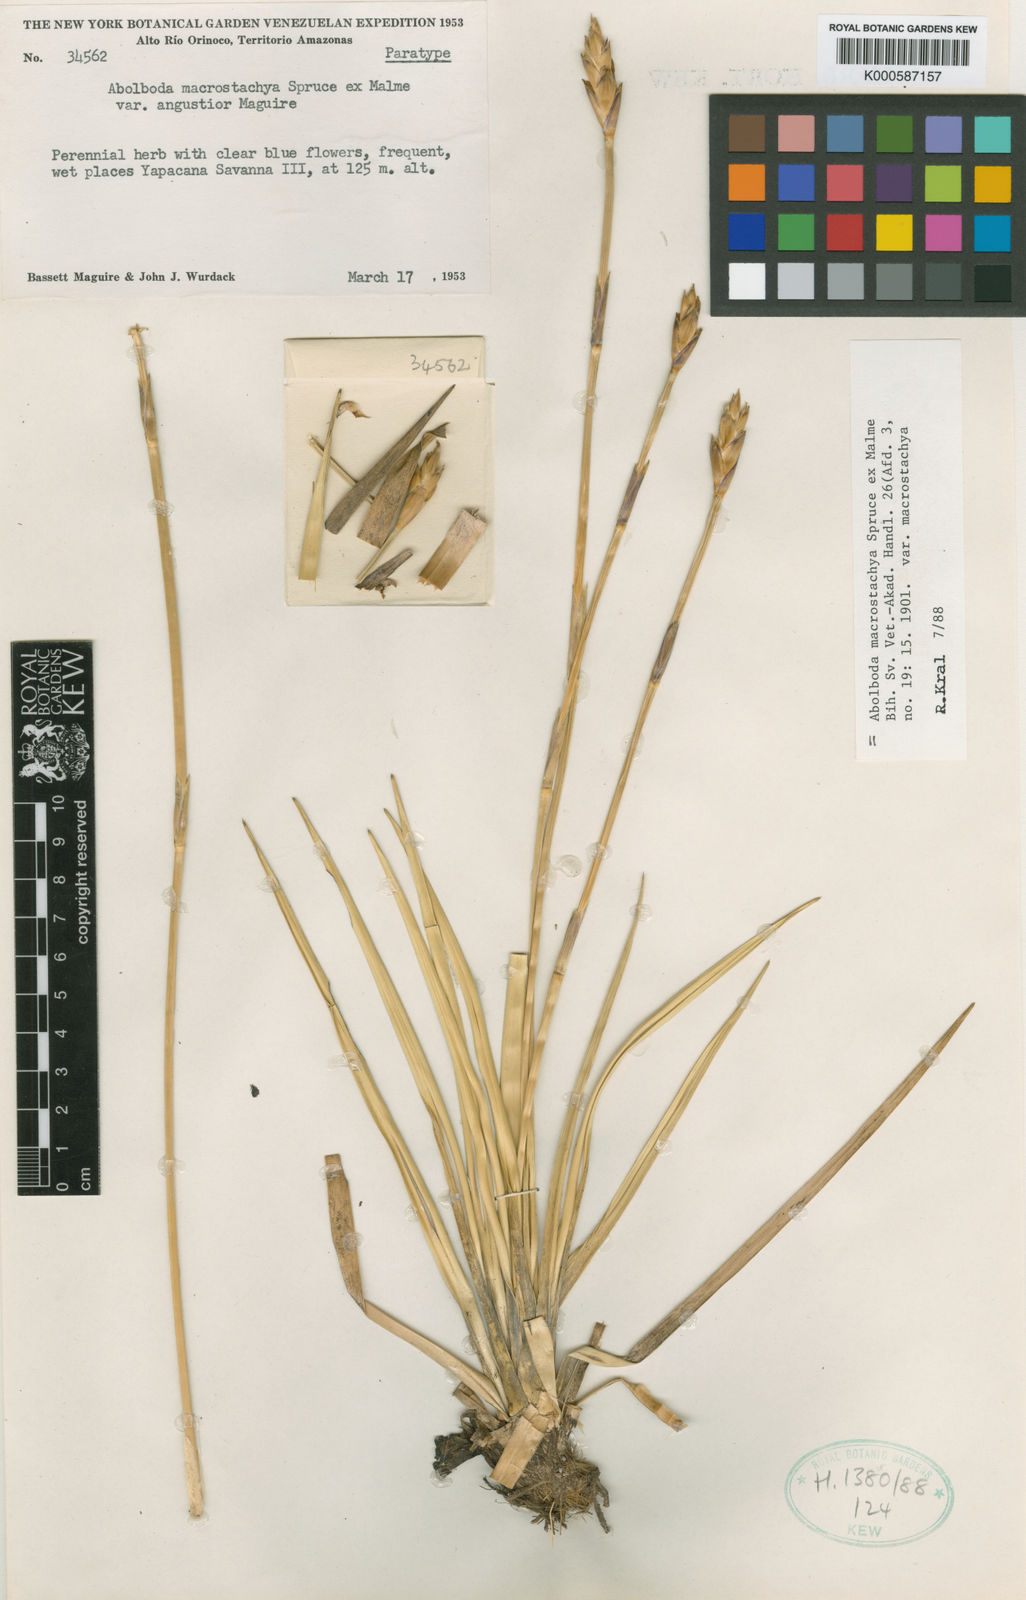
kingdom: Plantae
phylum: Tracheophyta
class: Liliopsida
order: Poales
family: Xyridaceae
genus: Abolboda
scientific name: Abolboda macrostachya
